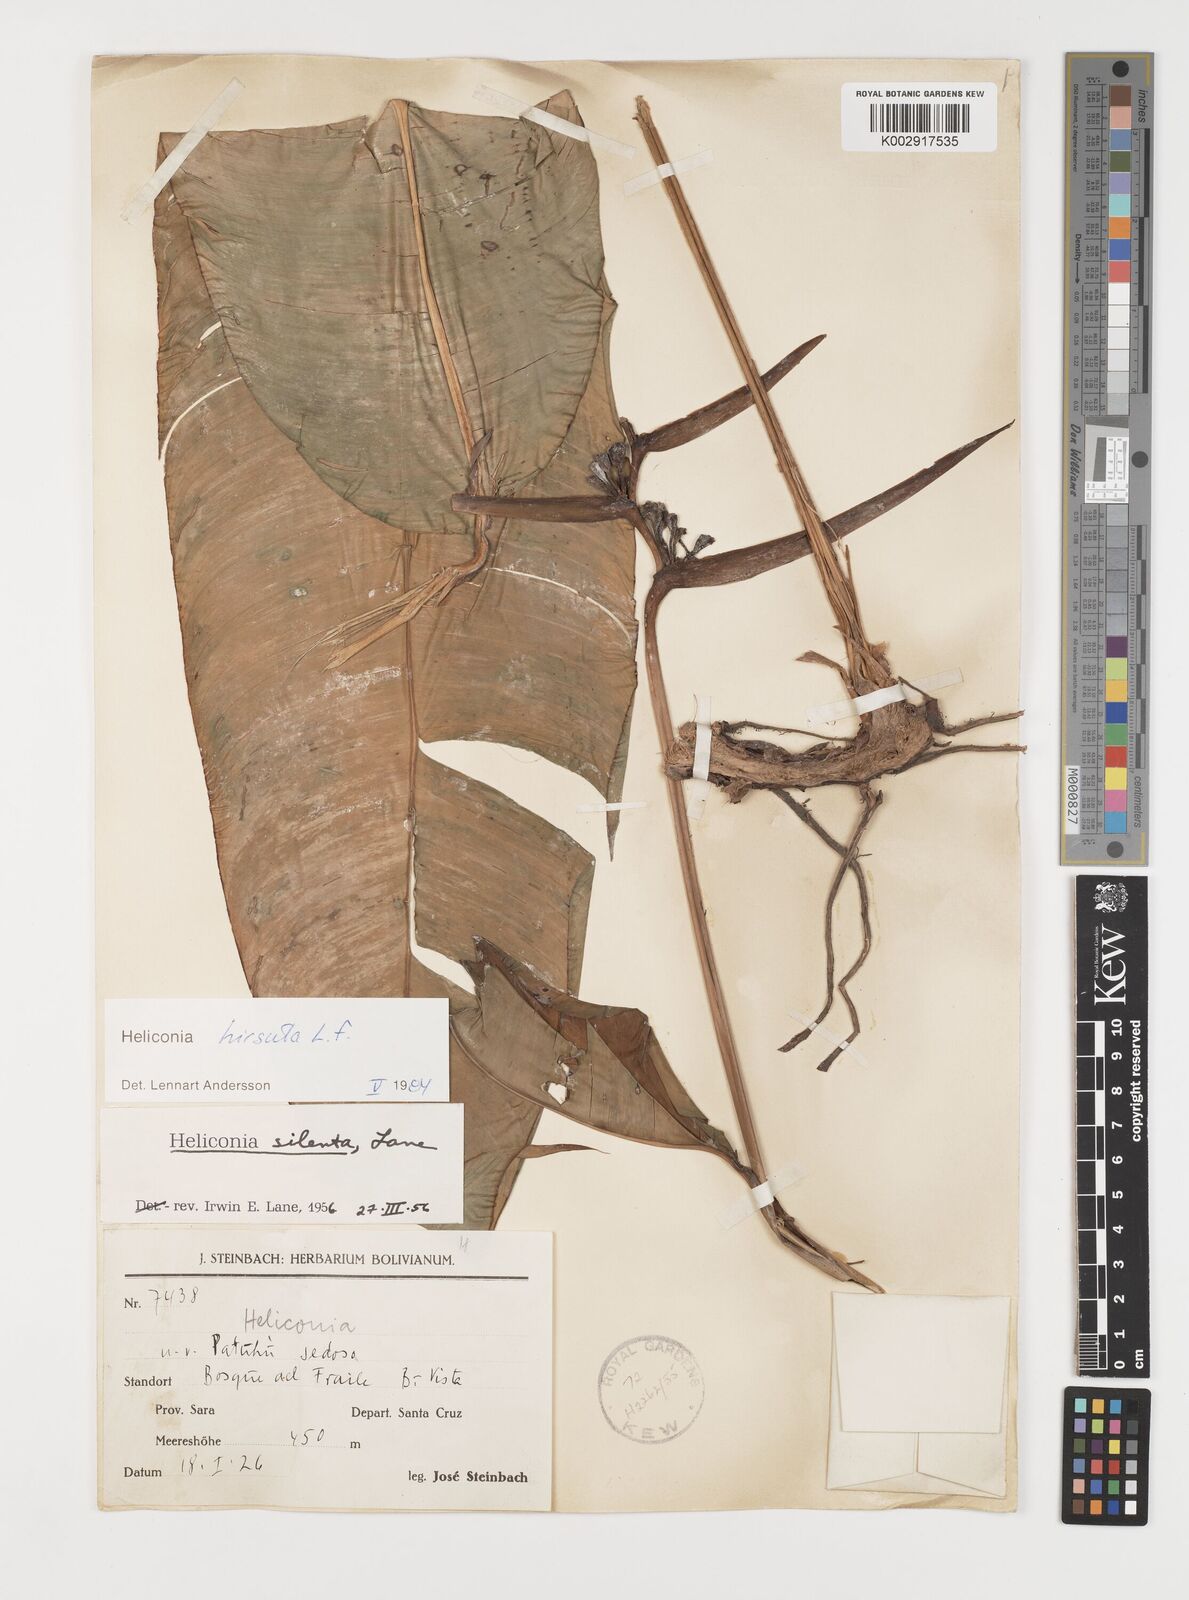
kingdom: Plantae
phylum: Tracheophyta
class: Liliopsida
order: Zingiberales
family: Heliconiaceae
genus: Heliconia
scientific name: Heliconia hirsuta
